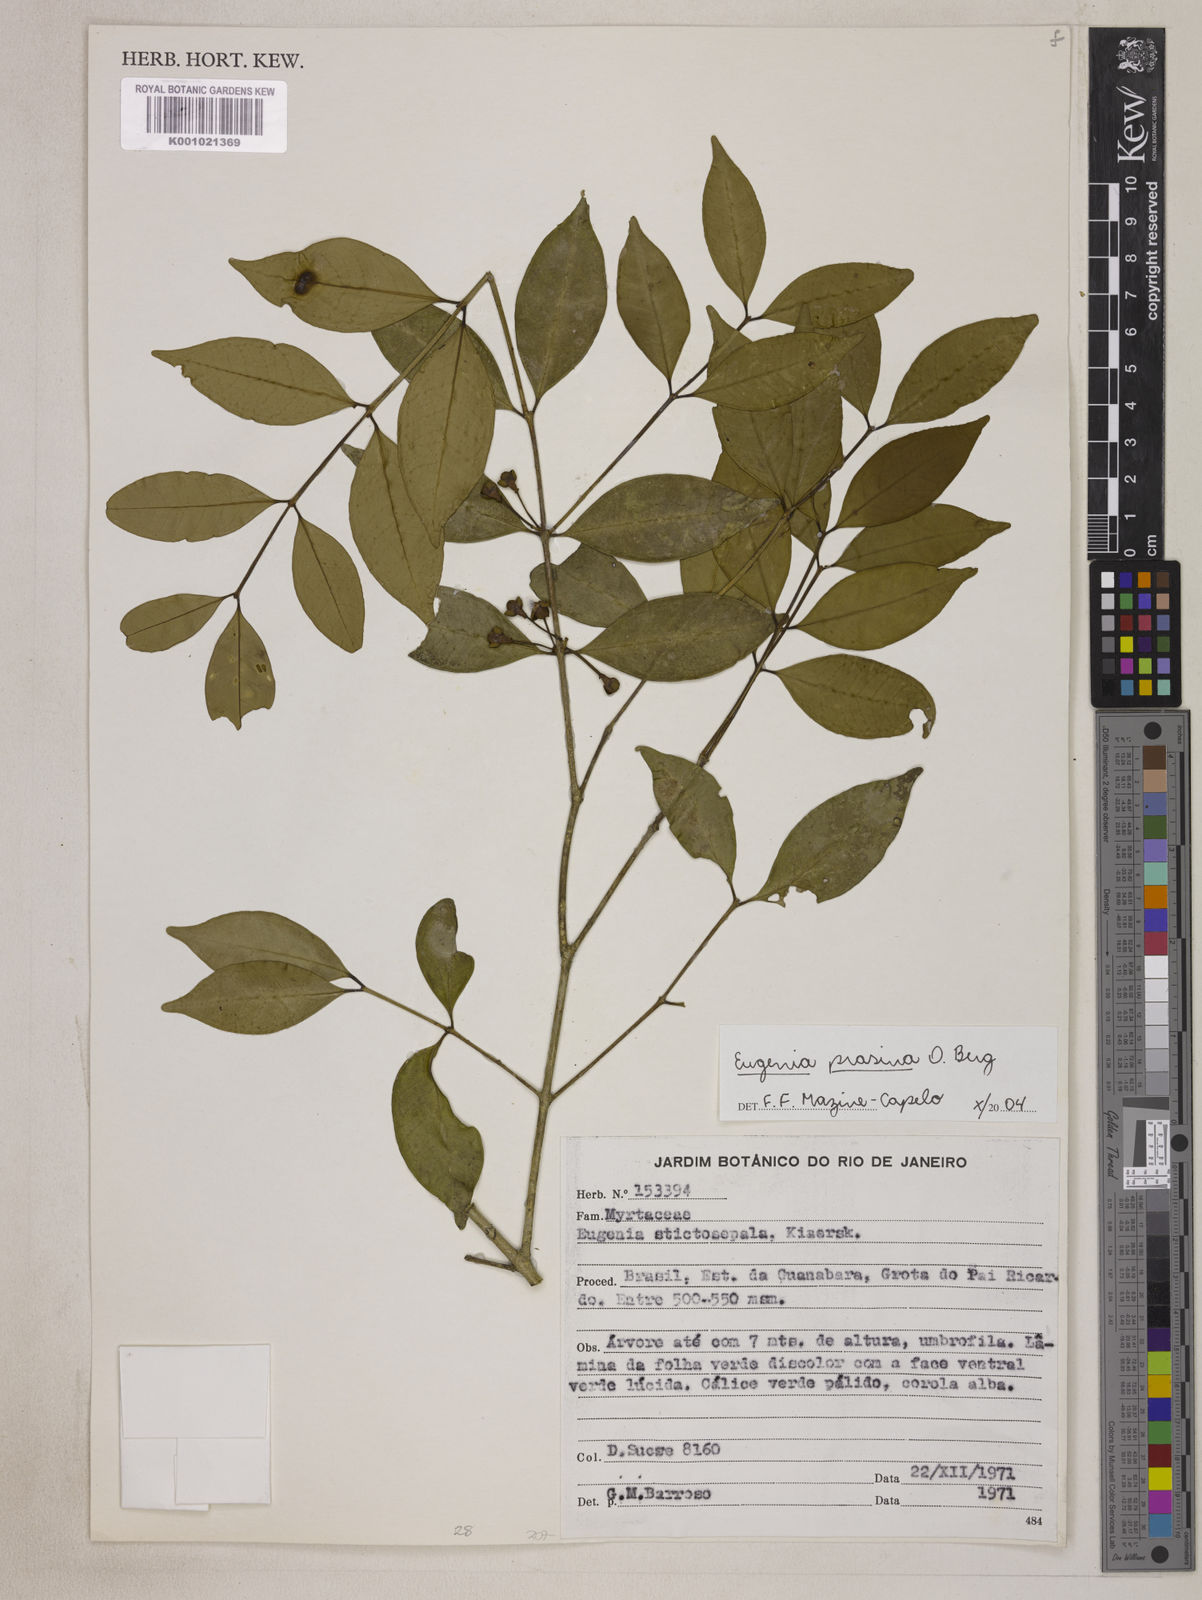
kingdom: Plantae
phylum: Tracheophyta
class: Magnoliopsida
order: Myrtales
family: Myrtaceae
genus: Eugenia
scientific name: Eugenia prasina
